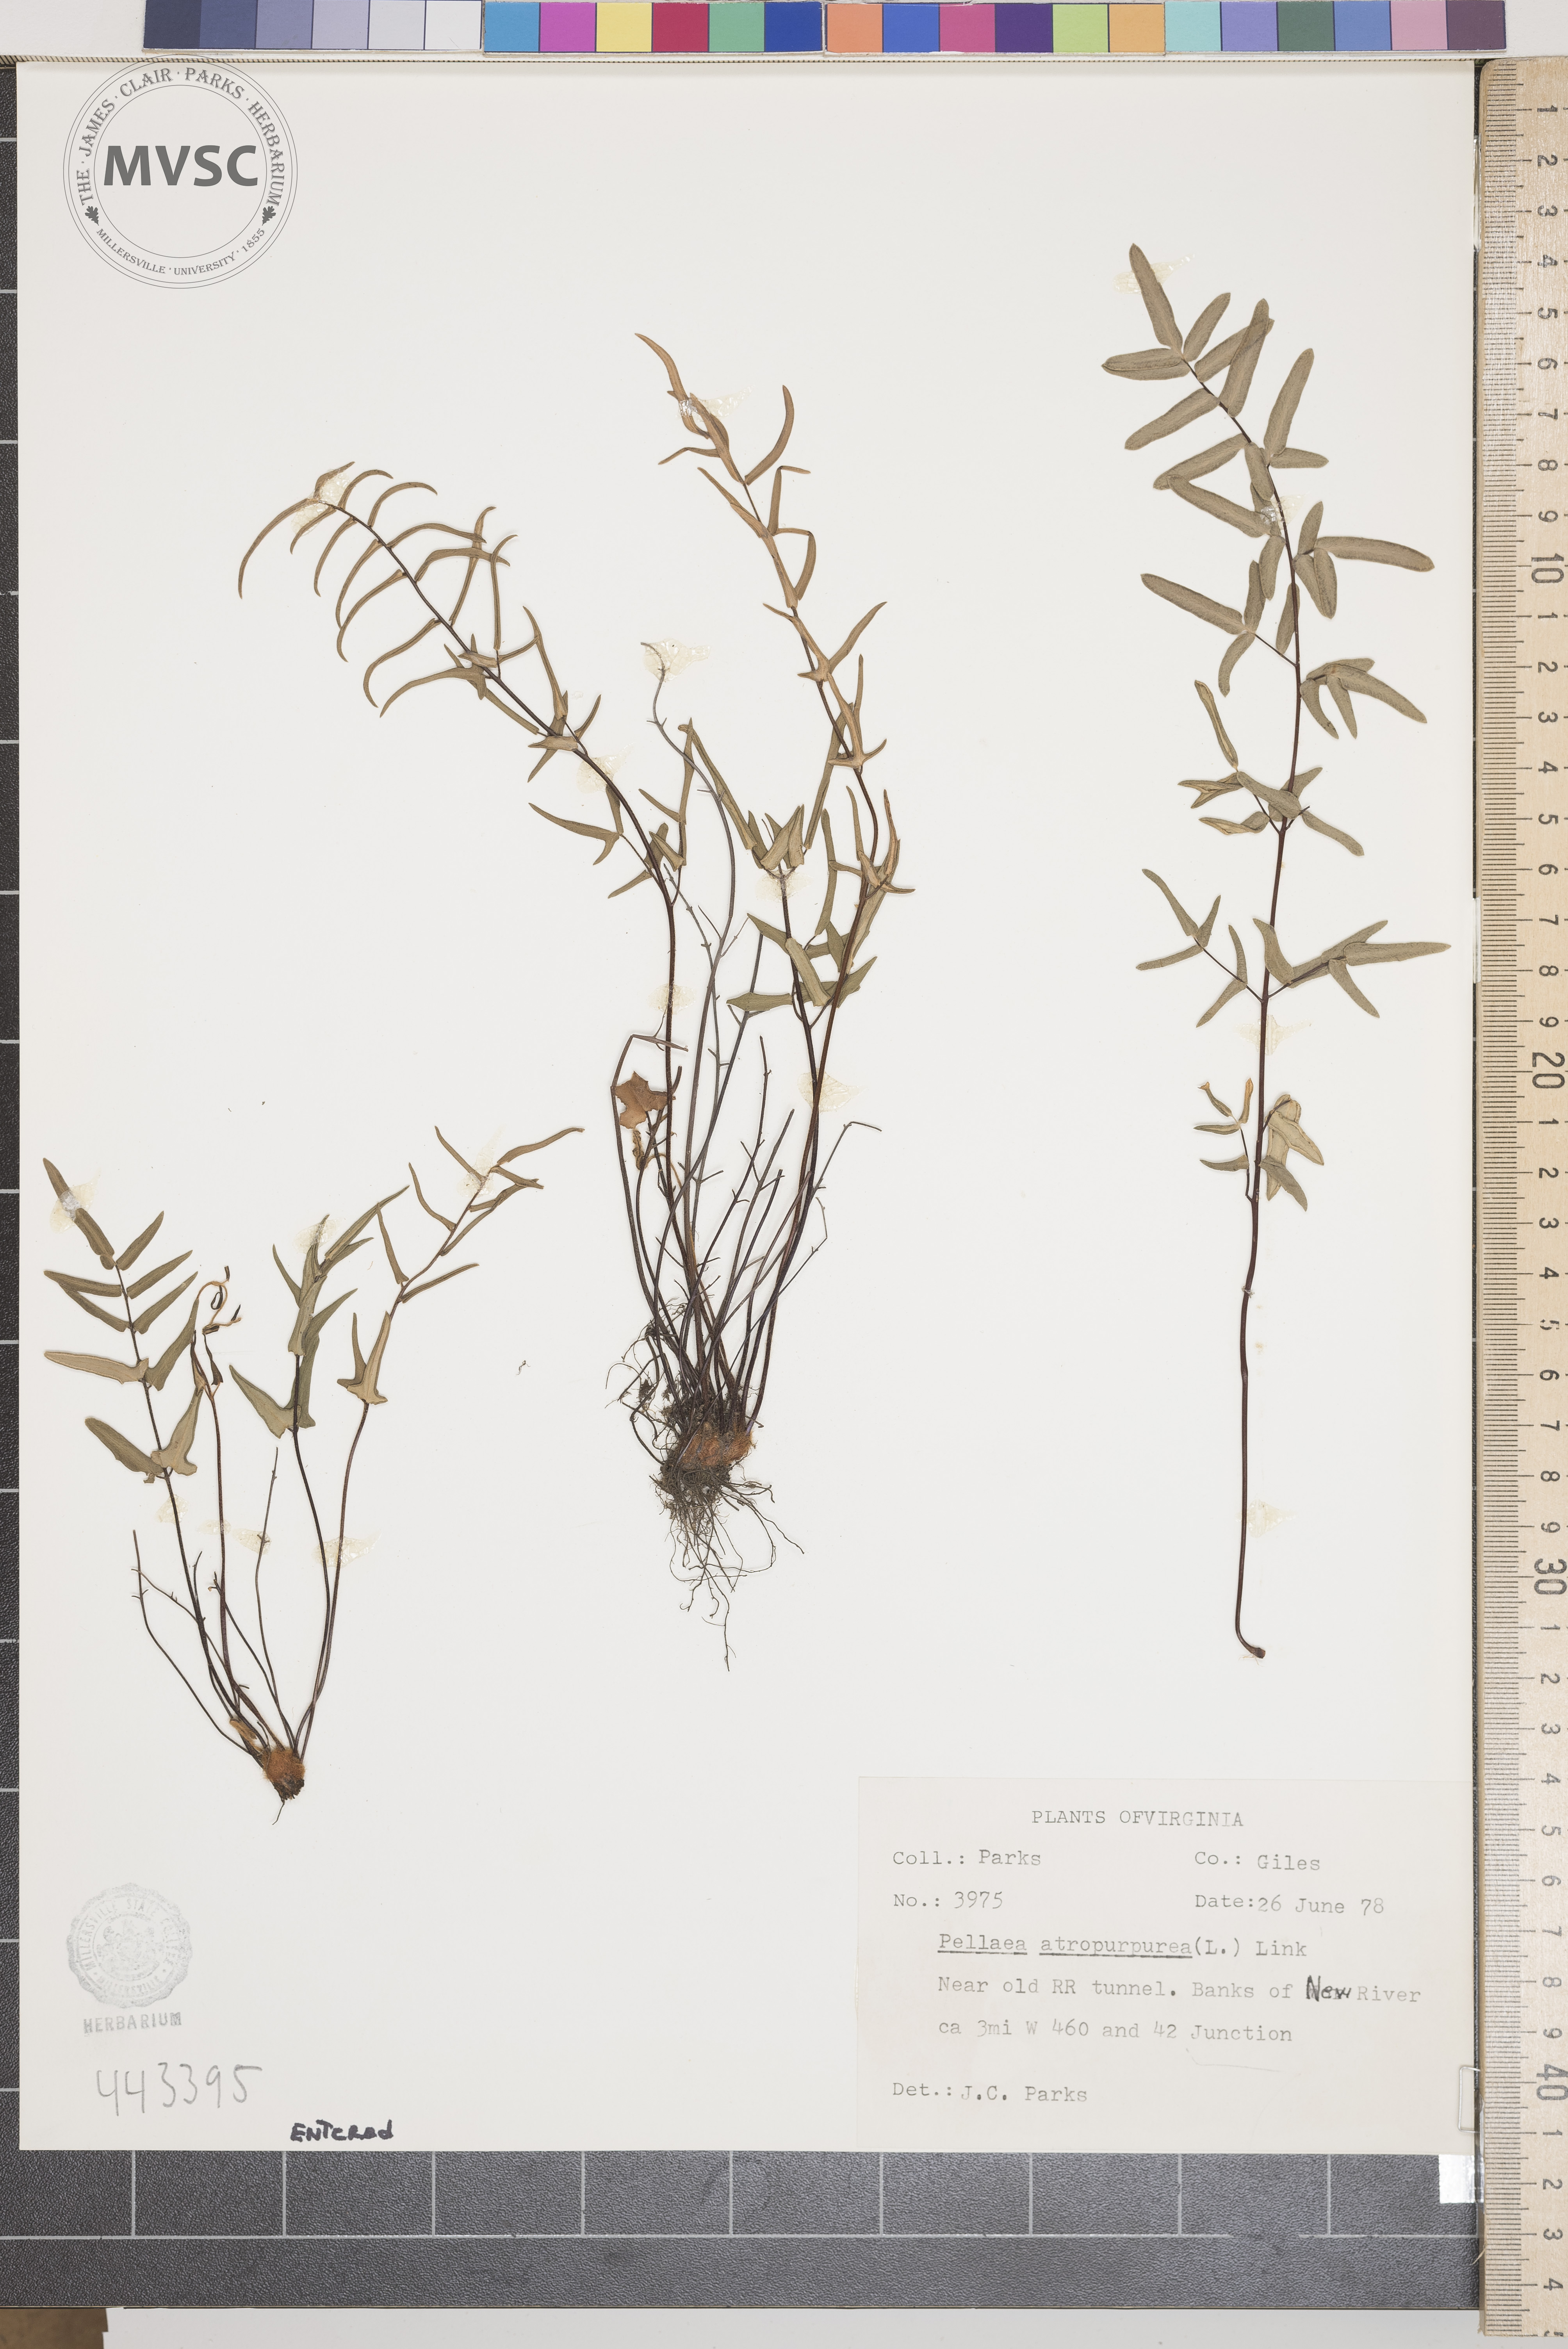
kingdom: Plantae
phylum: Tracheophyta
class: Polypodiopsida
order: Polypodiales
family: Pteridaceae
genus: Pellaea
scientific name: Pellaea atropurpurea
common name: Hairy cliffbrake
